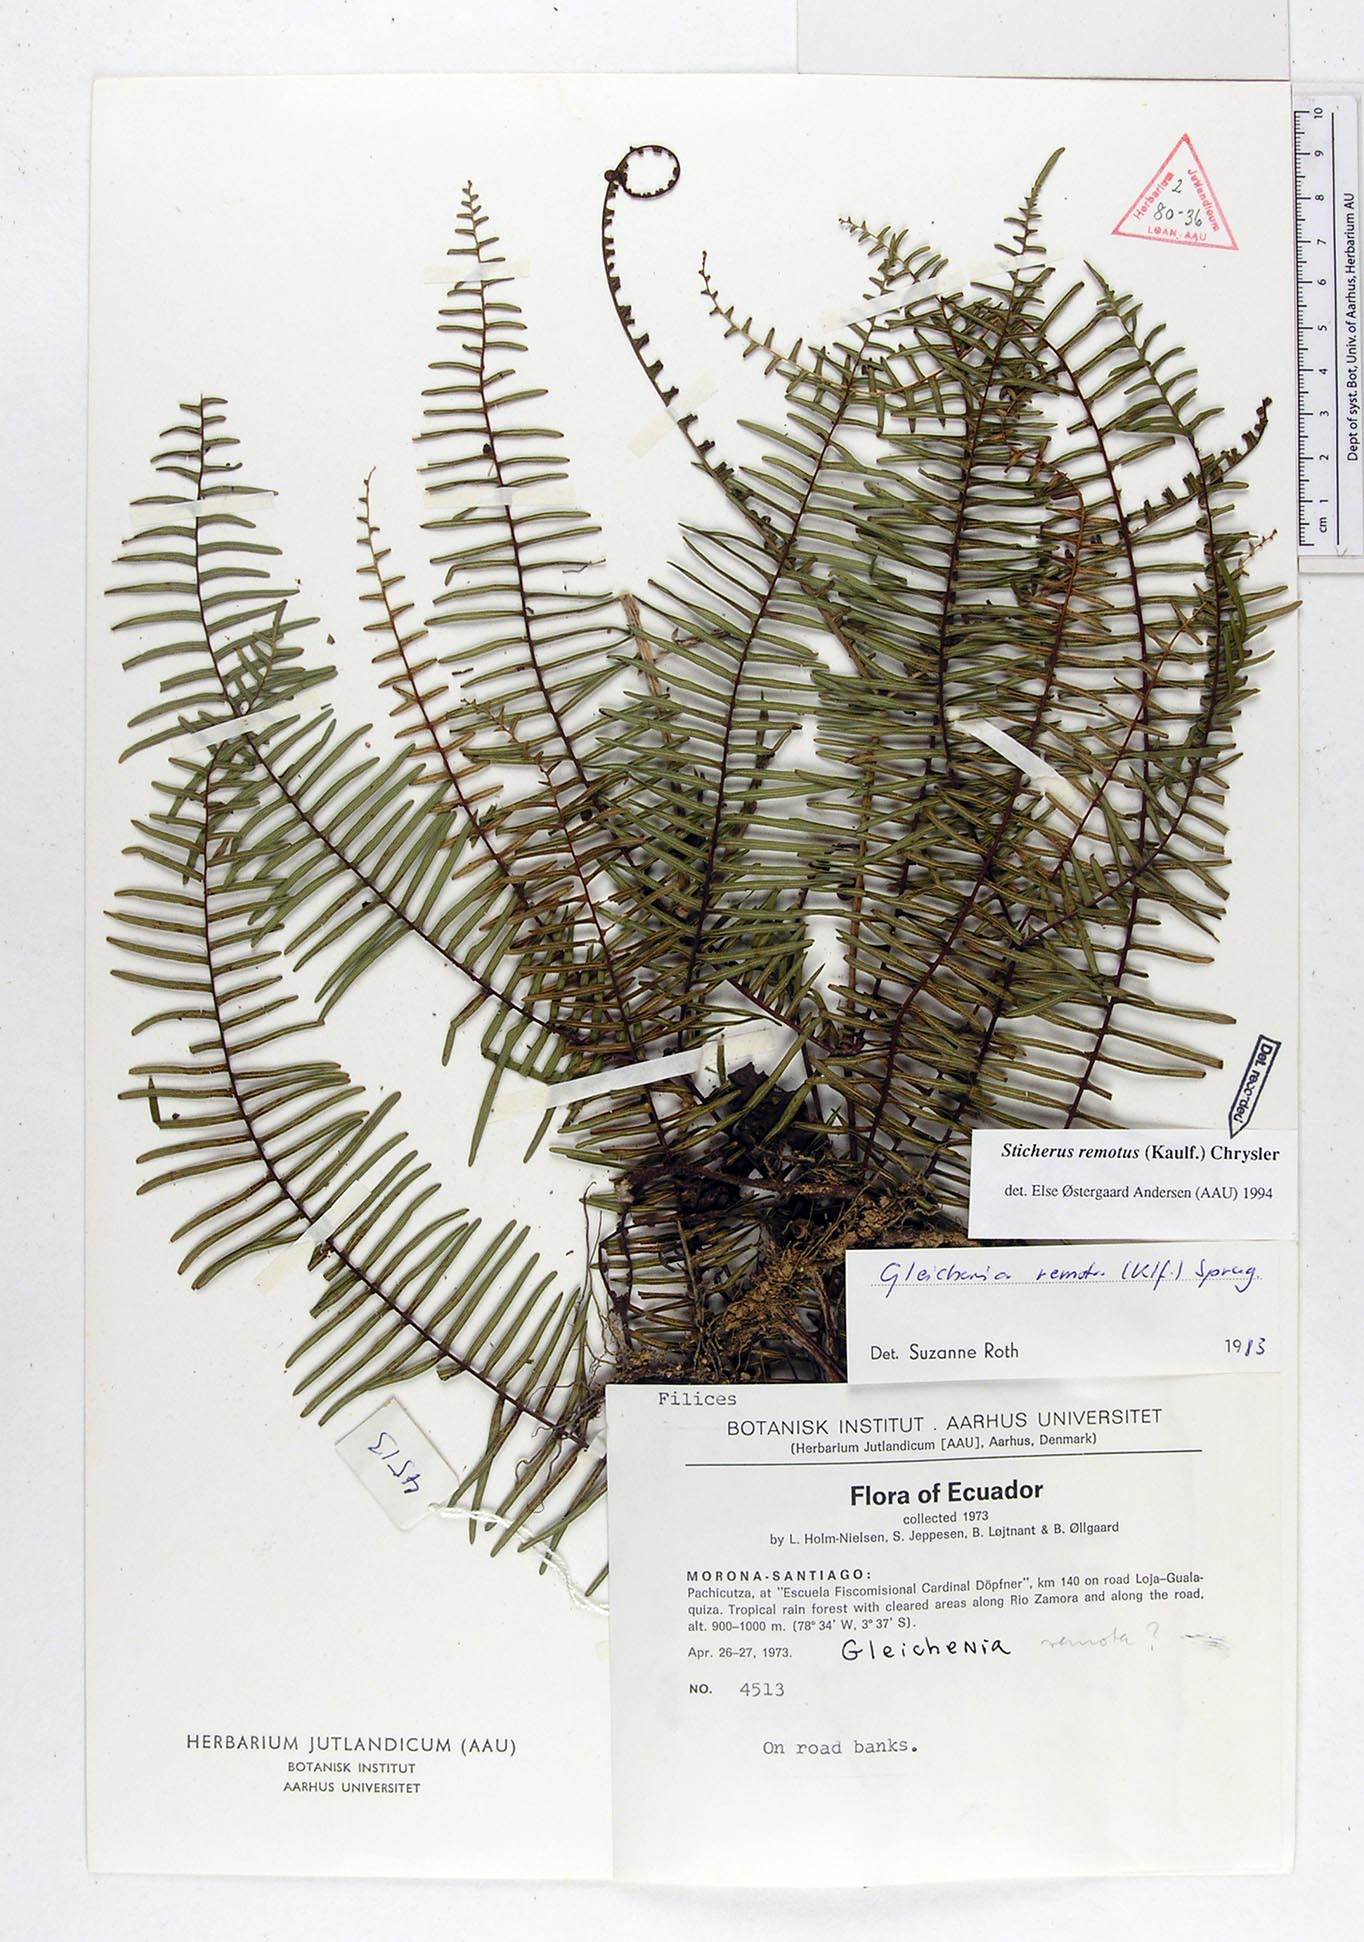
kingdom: Plantae
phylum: Tracheophyta
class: Polypodiopsida
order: Gleicheniales
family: Gleicheniaceae
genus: Sticherus
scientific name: Sticherus remotus
